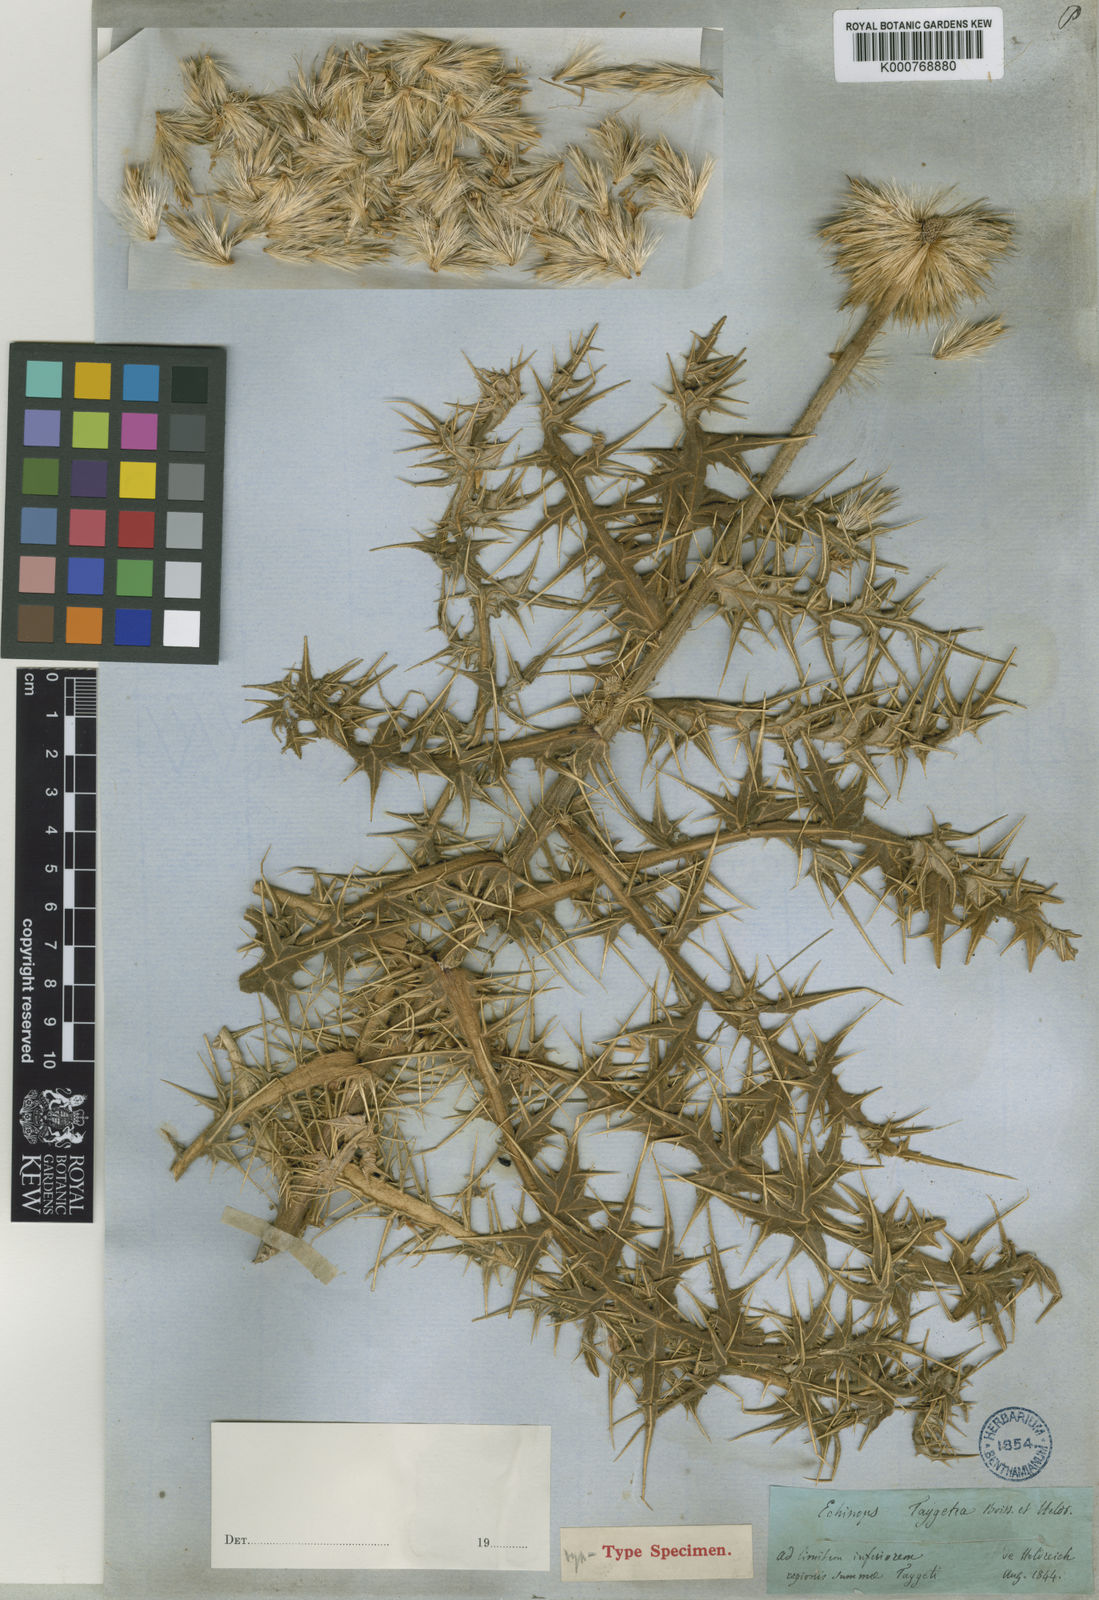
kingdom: Plantae
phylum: Tracheophyta
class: Magnoliopsida
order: Asterales
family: Asteraceae
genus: Echinops
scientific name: Echinops sphaerocephalus
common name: Glandular globe-thistle
